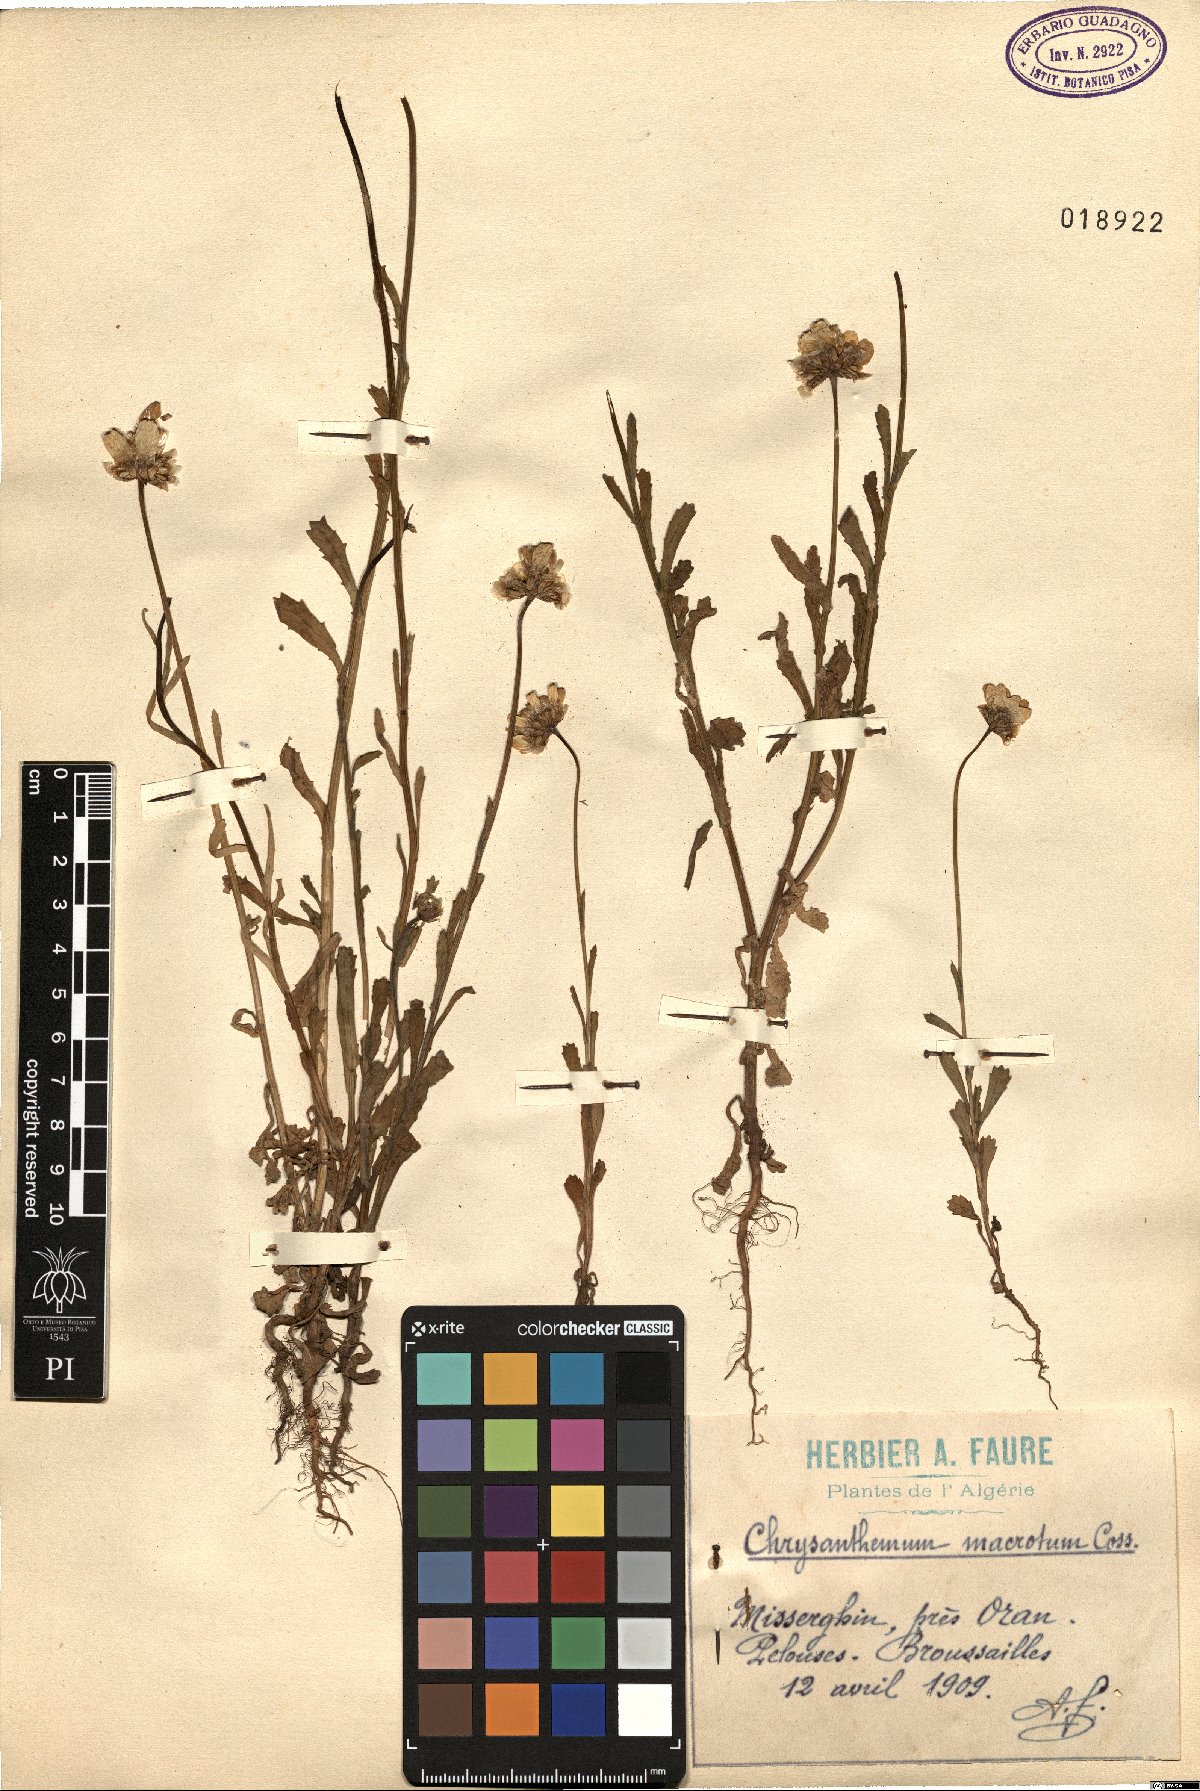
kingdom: Plantae
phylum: Tracheophyta
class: Magnoliopsida
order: Asterales
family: Asteraceae
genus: Glossopappus
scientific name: Glossopappus macrotus
